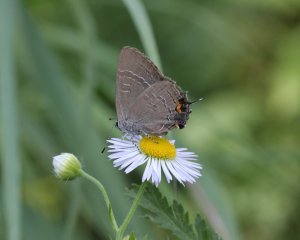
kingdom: Animalia
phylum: Arthropoda
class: Insecta
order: Lepidoptera
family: Lycaenidae
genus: Strymon
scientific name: Strymon caryaevorus
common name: Hickory Hairstreak
